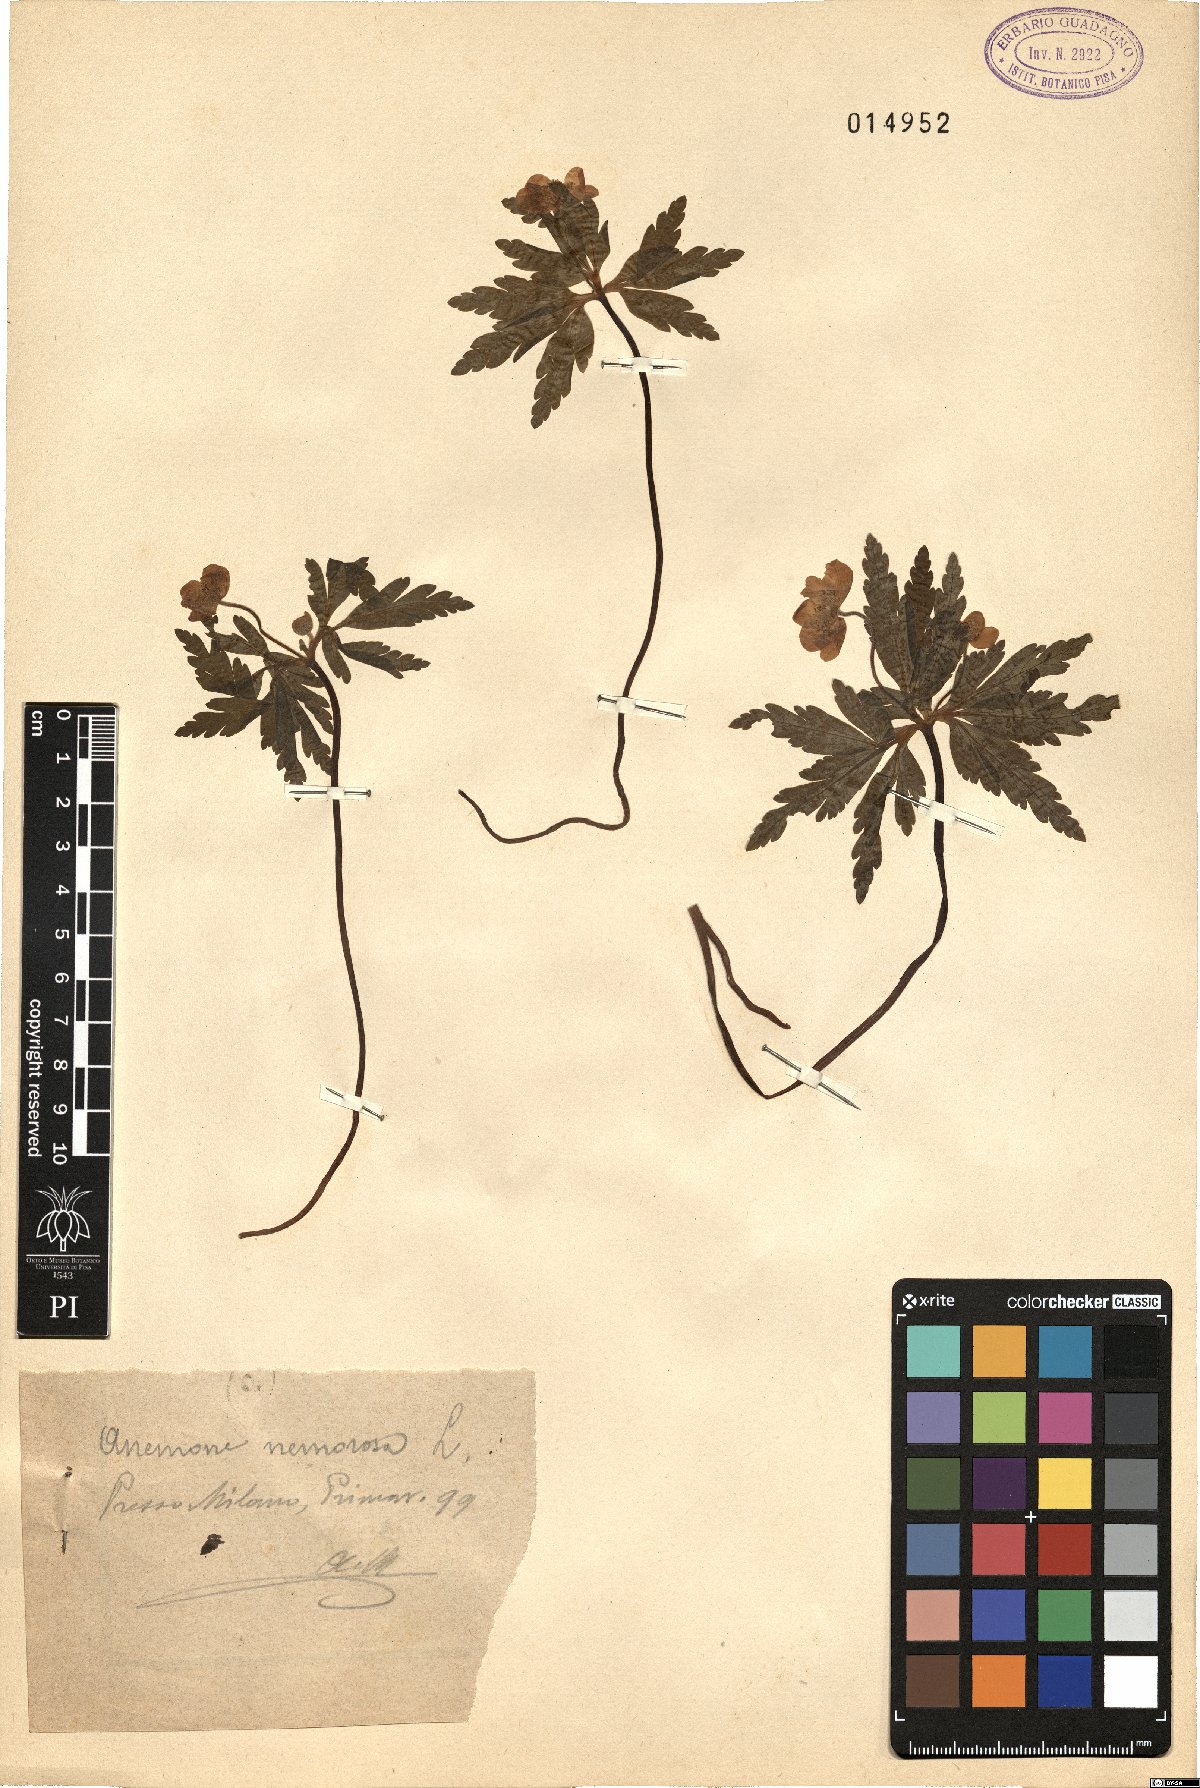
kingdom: Plantae
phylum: Tracheophyta
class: Magnoliopsida
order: Ranunculales
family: Ranunculaceae
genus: Anemone
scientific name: Anemone nemorosa
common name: Wood anemone
